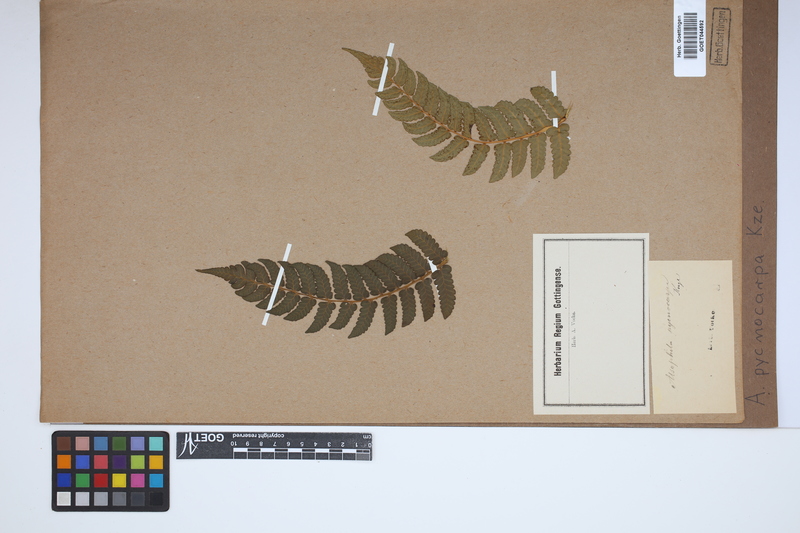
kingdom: Plantae
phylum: Tracheophyta
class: Polypodiopsida
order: Cyatheales
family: Cyatheaceae
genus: Cyathea
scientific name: Cyathea dombeyi
